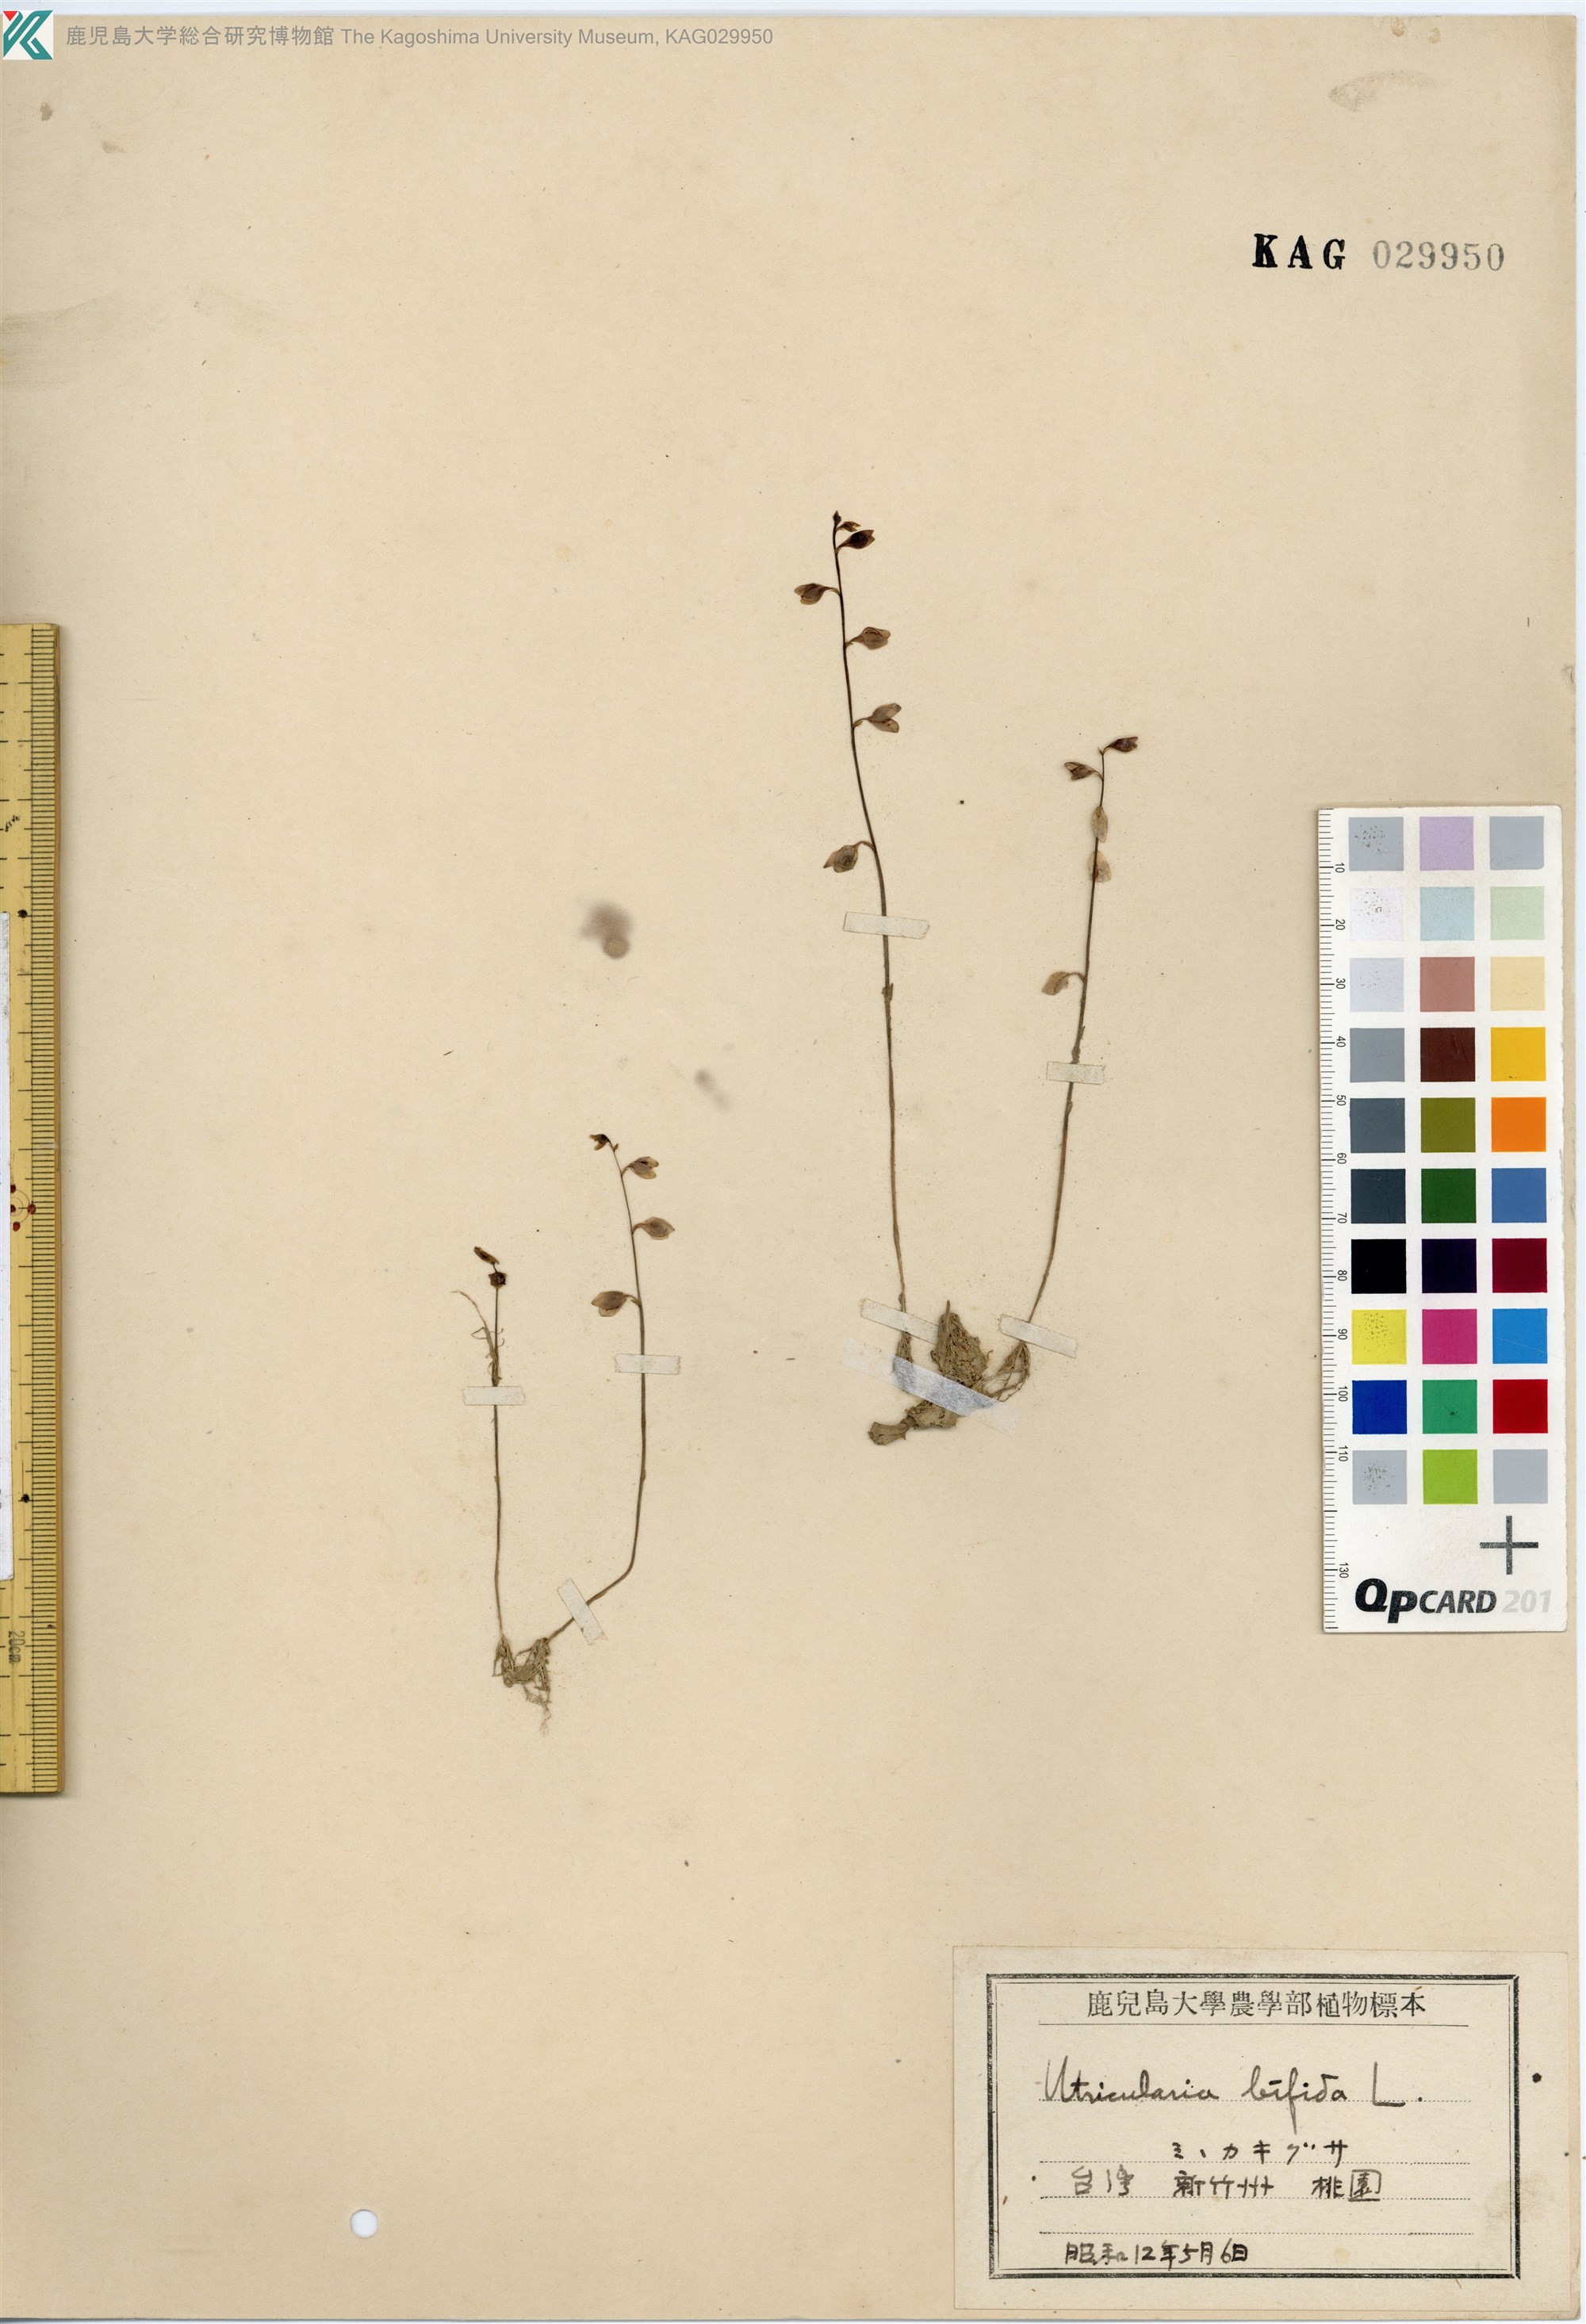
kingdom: Plantae
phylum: Tracheophyta
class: Magnoliopsida
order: Lamiales
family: Lentibulariaceae
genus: Utricularia
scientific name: Utricularia bifida
